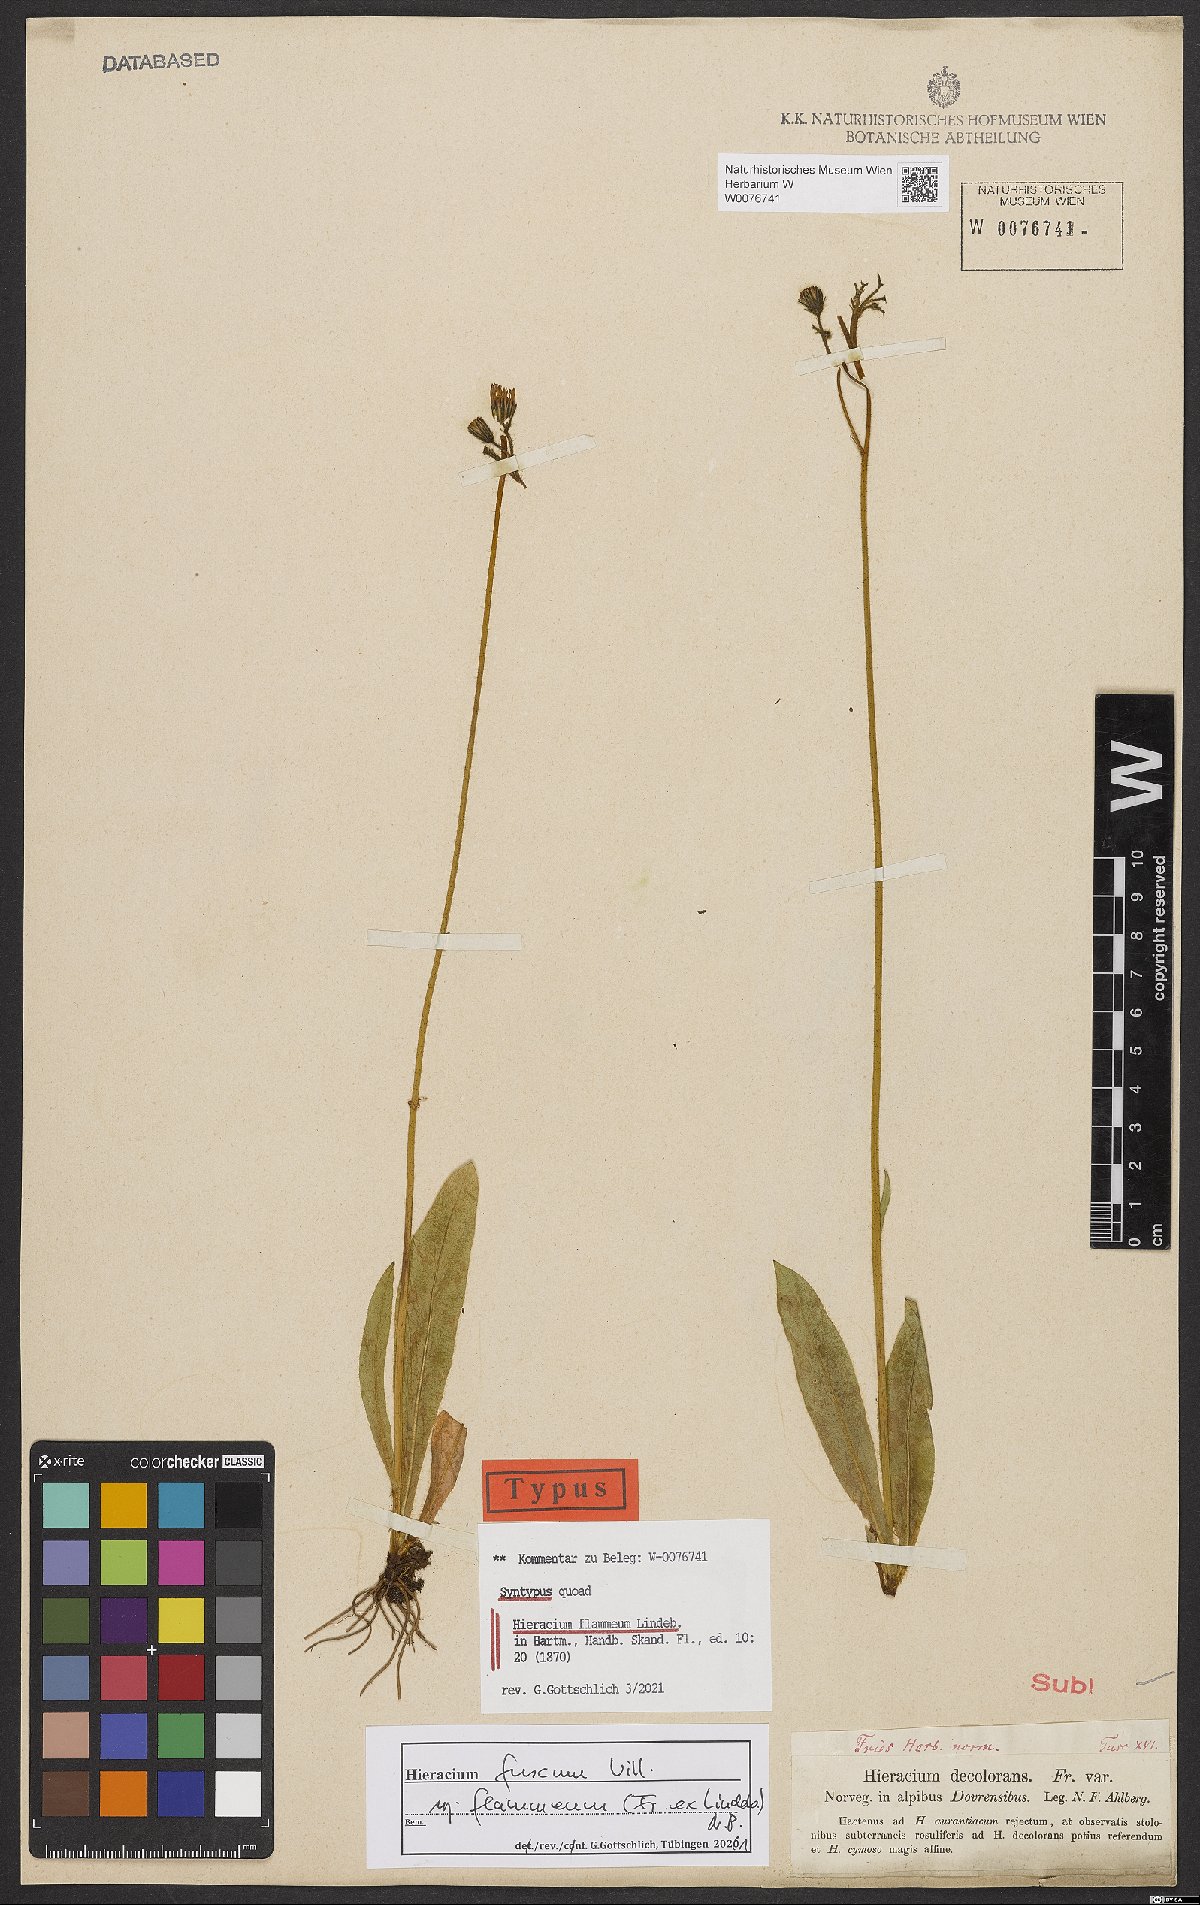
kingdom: Plantae
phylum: Tracheophyta
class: Magnoliopsida
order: Asterales
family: Asteraceae
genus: Pilosella
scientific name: Pilosella fuscoatra
